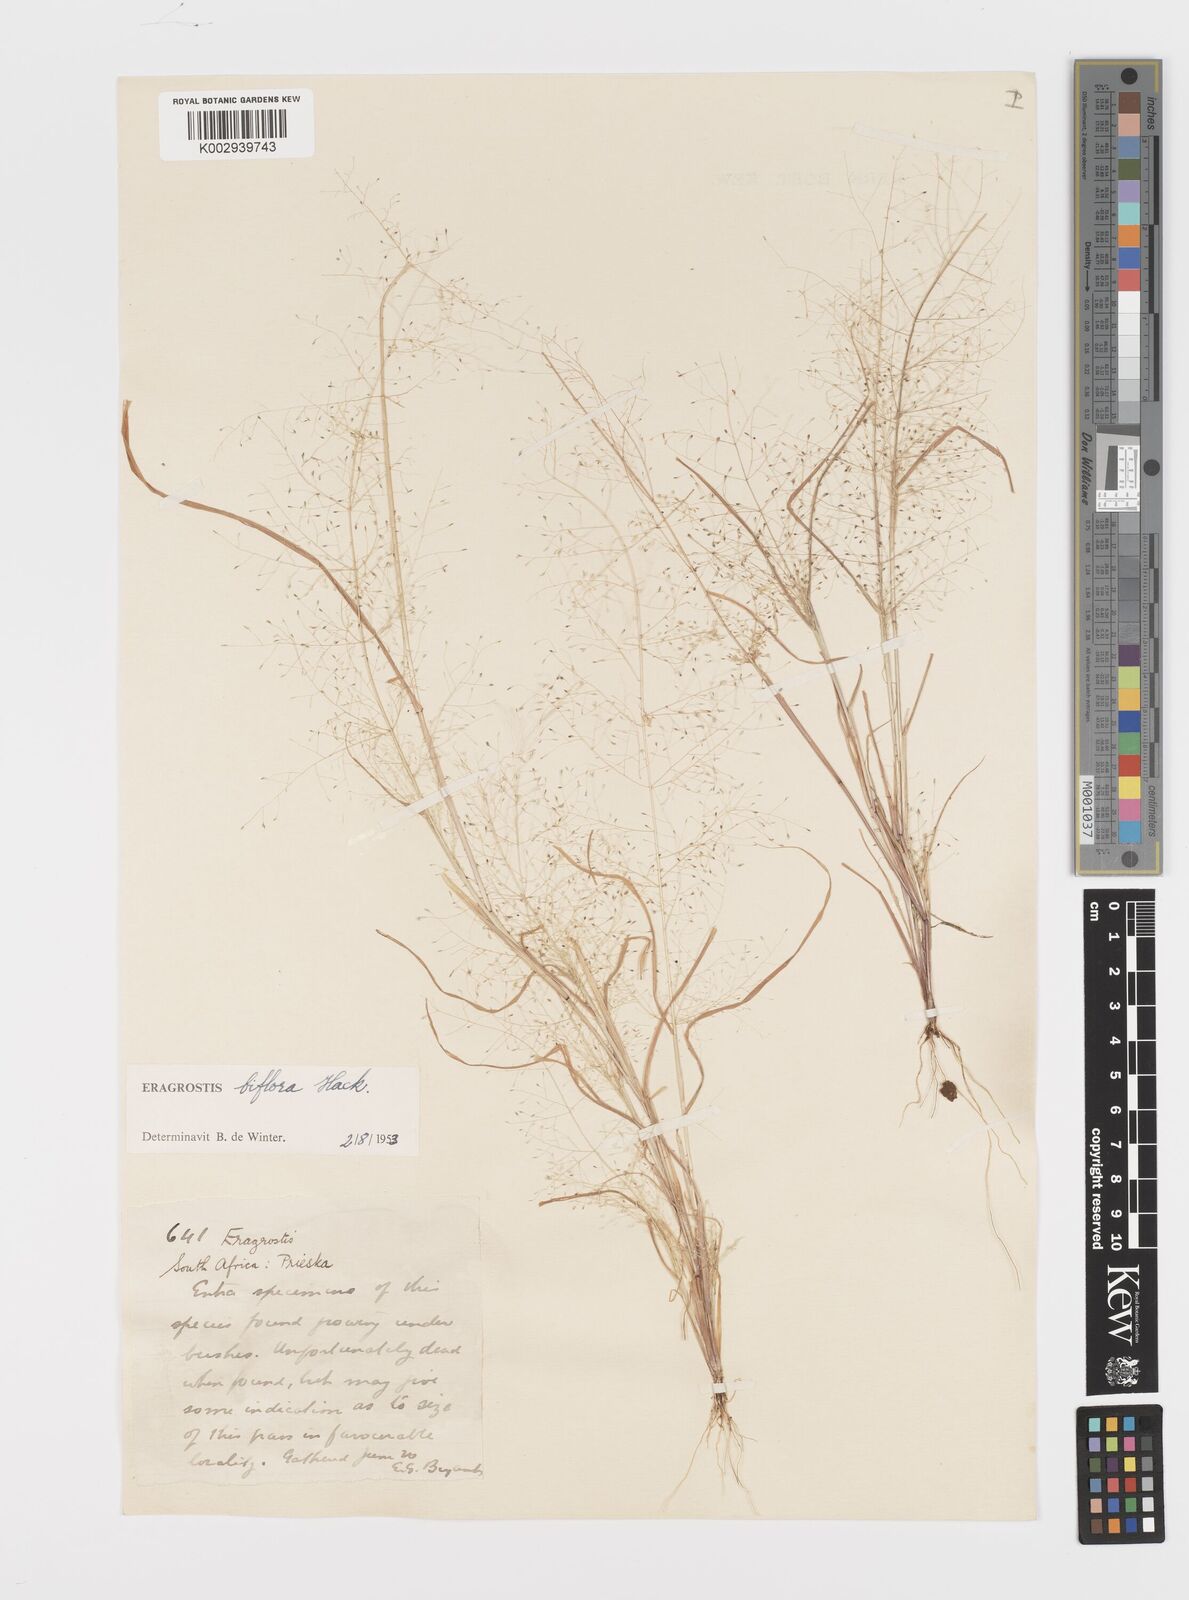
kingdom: Plantae
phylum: Tracheophyta
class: Liliopsida
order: Poales
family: Poaceae
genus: Eragrostis
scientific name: Eragrostis biflora
